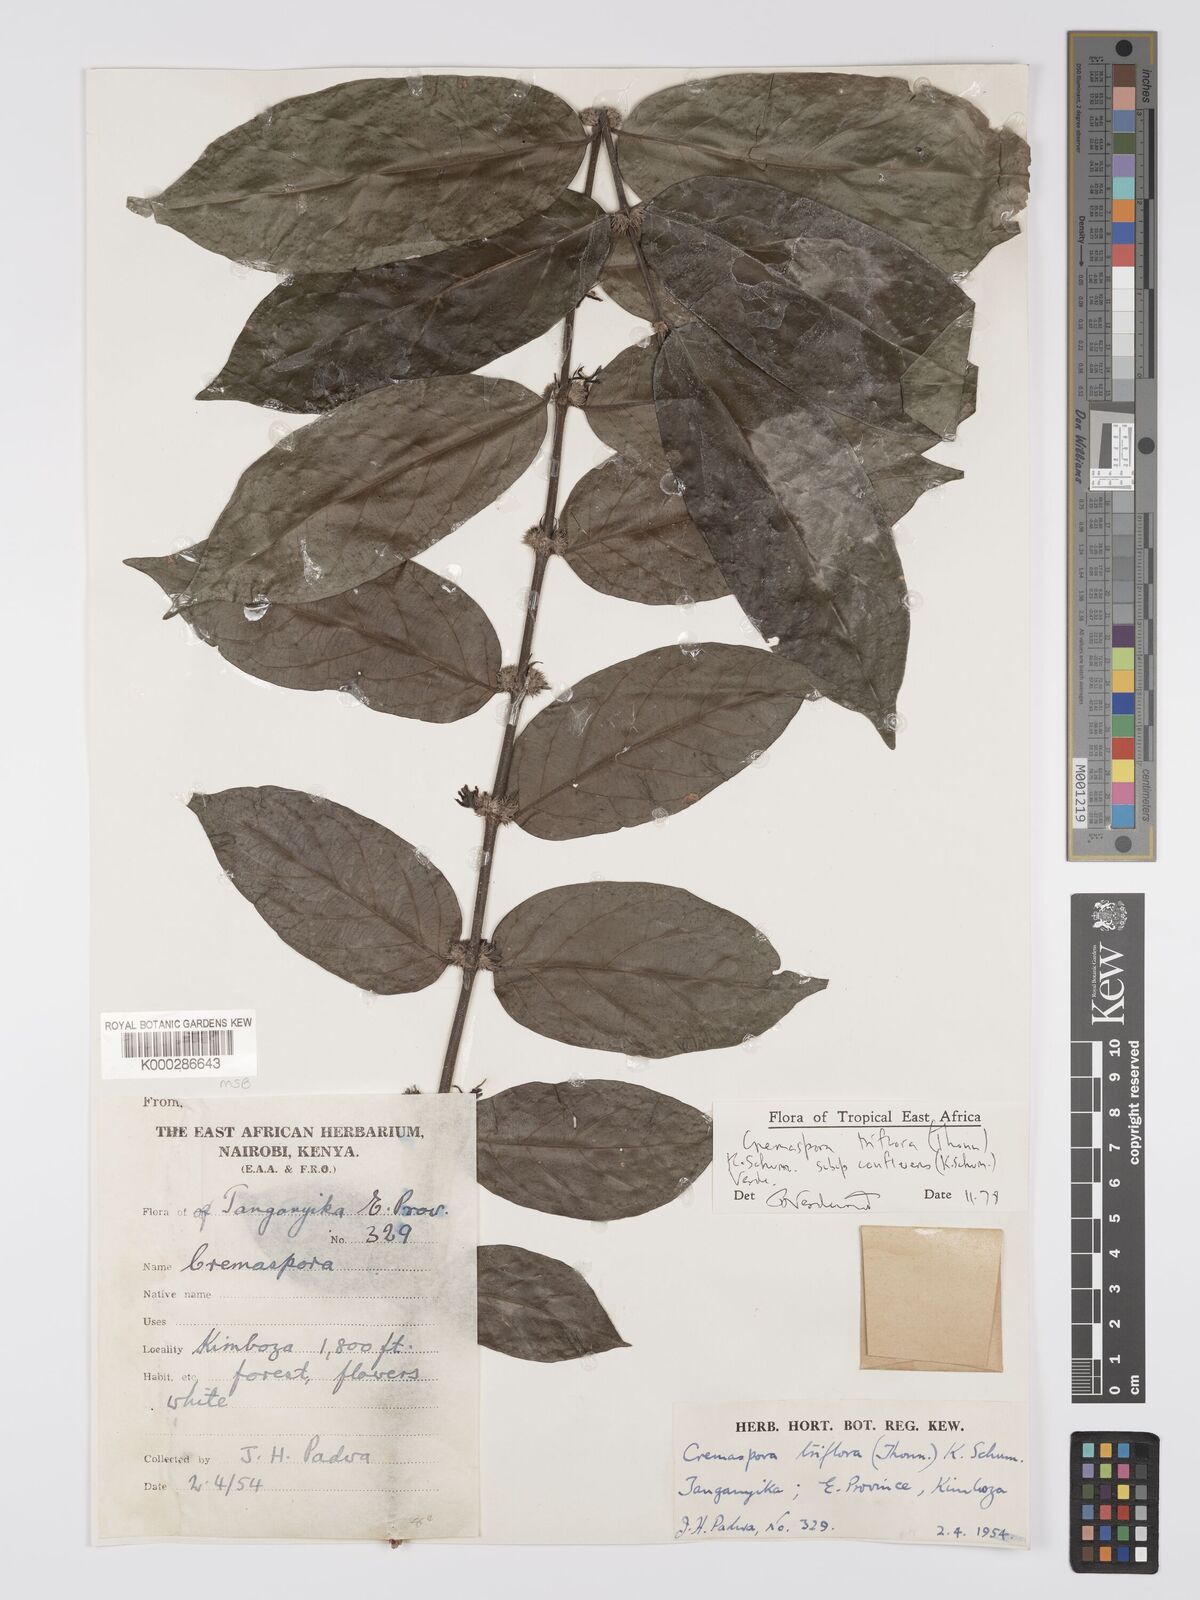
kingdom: Plantae
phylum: Tracheophyta
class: Magnoliopsida
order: Gentianales
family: Rubiaceae
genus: Cremaspora
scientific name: Cremaspora triflora
